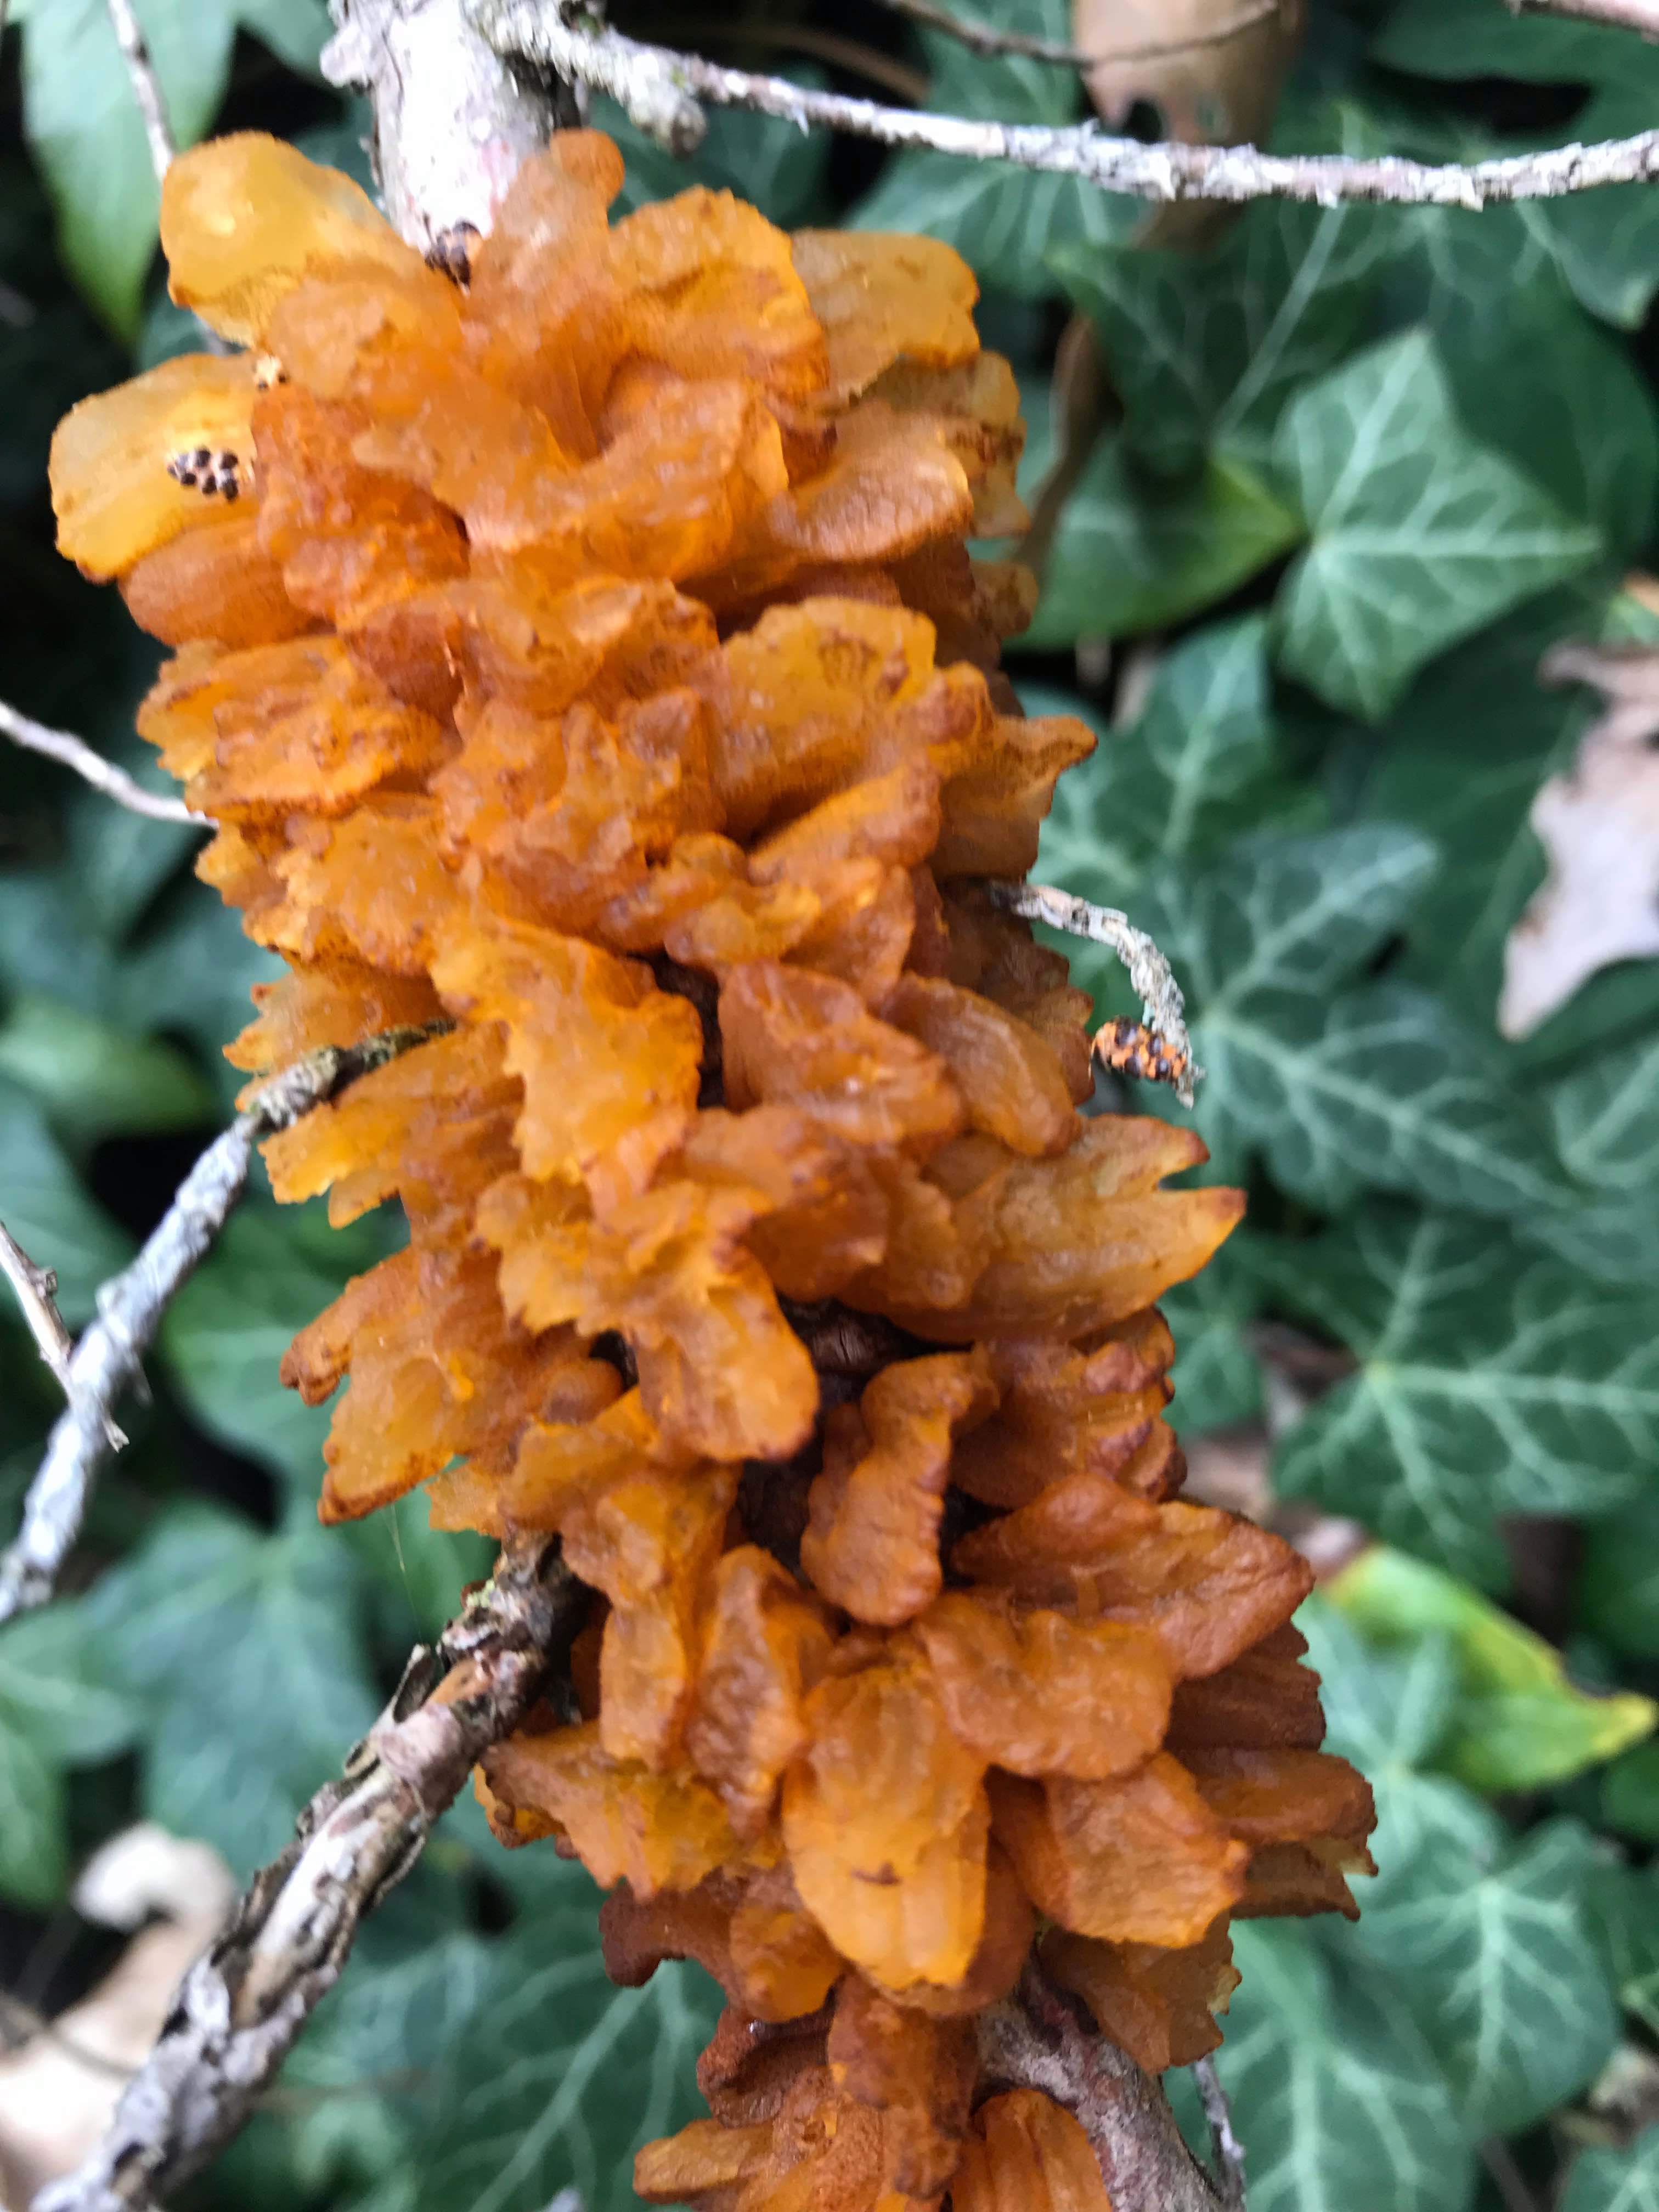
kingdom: Fungi
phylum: Basidiomycota
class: Pucciniomycetes
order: Pucciniales
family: Gymnosporangiaceae
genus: Gymnosporangium
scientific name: Gymnosporangium sabinae
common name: pæregitter-bævrerust
